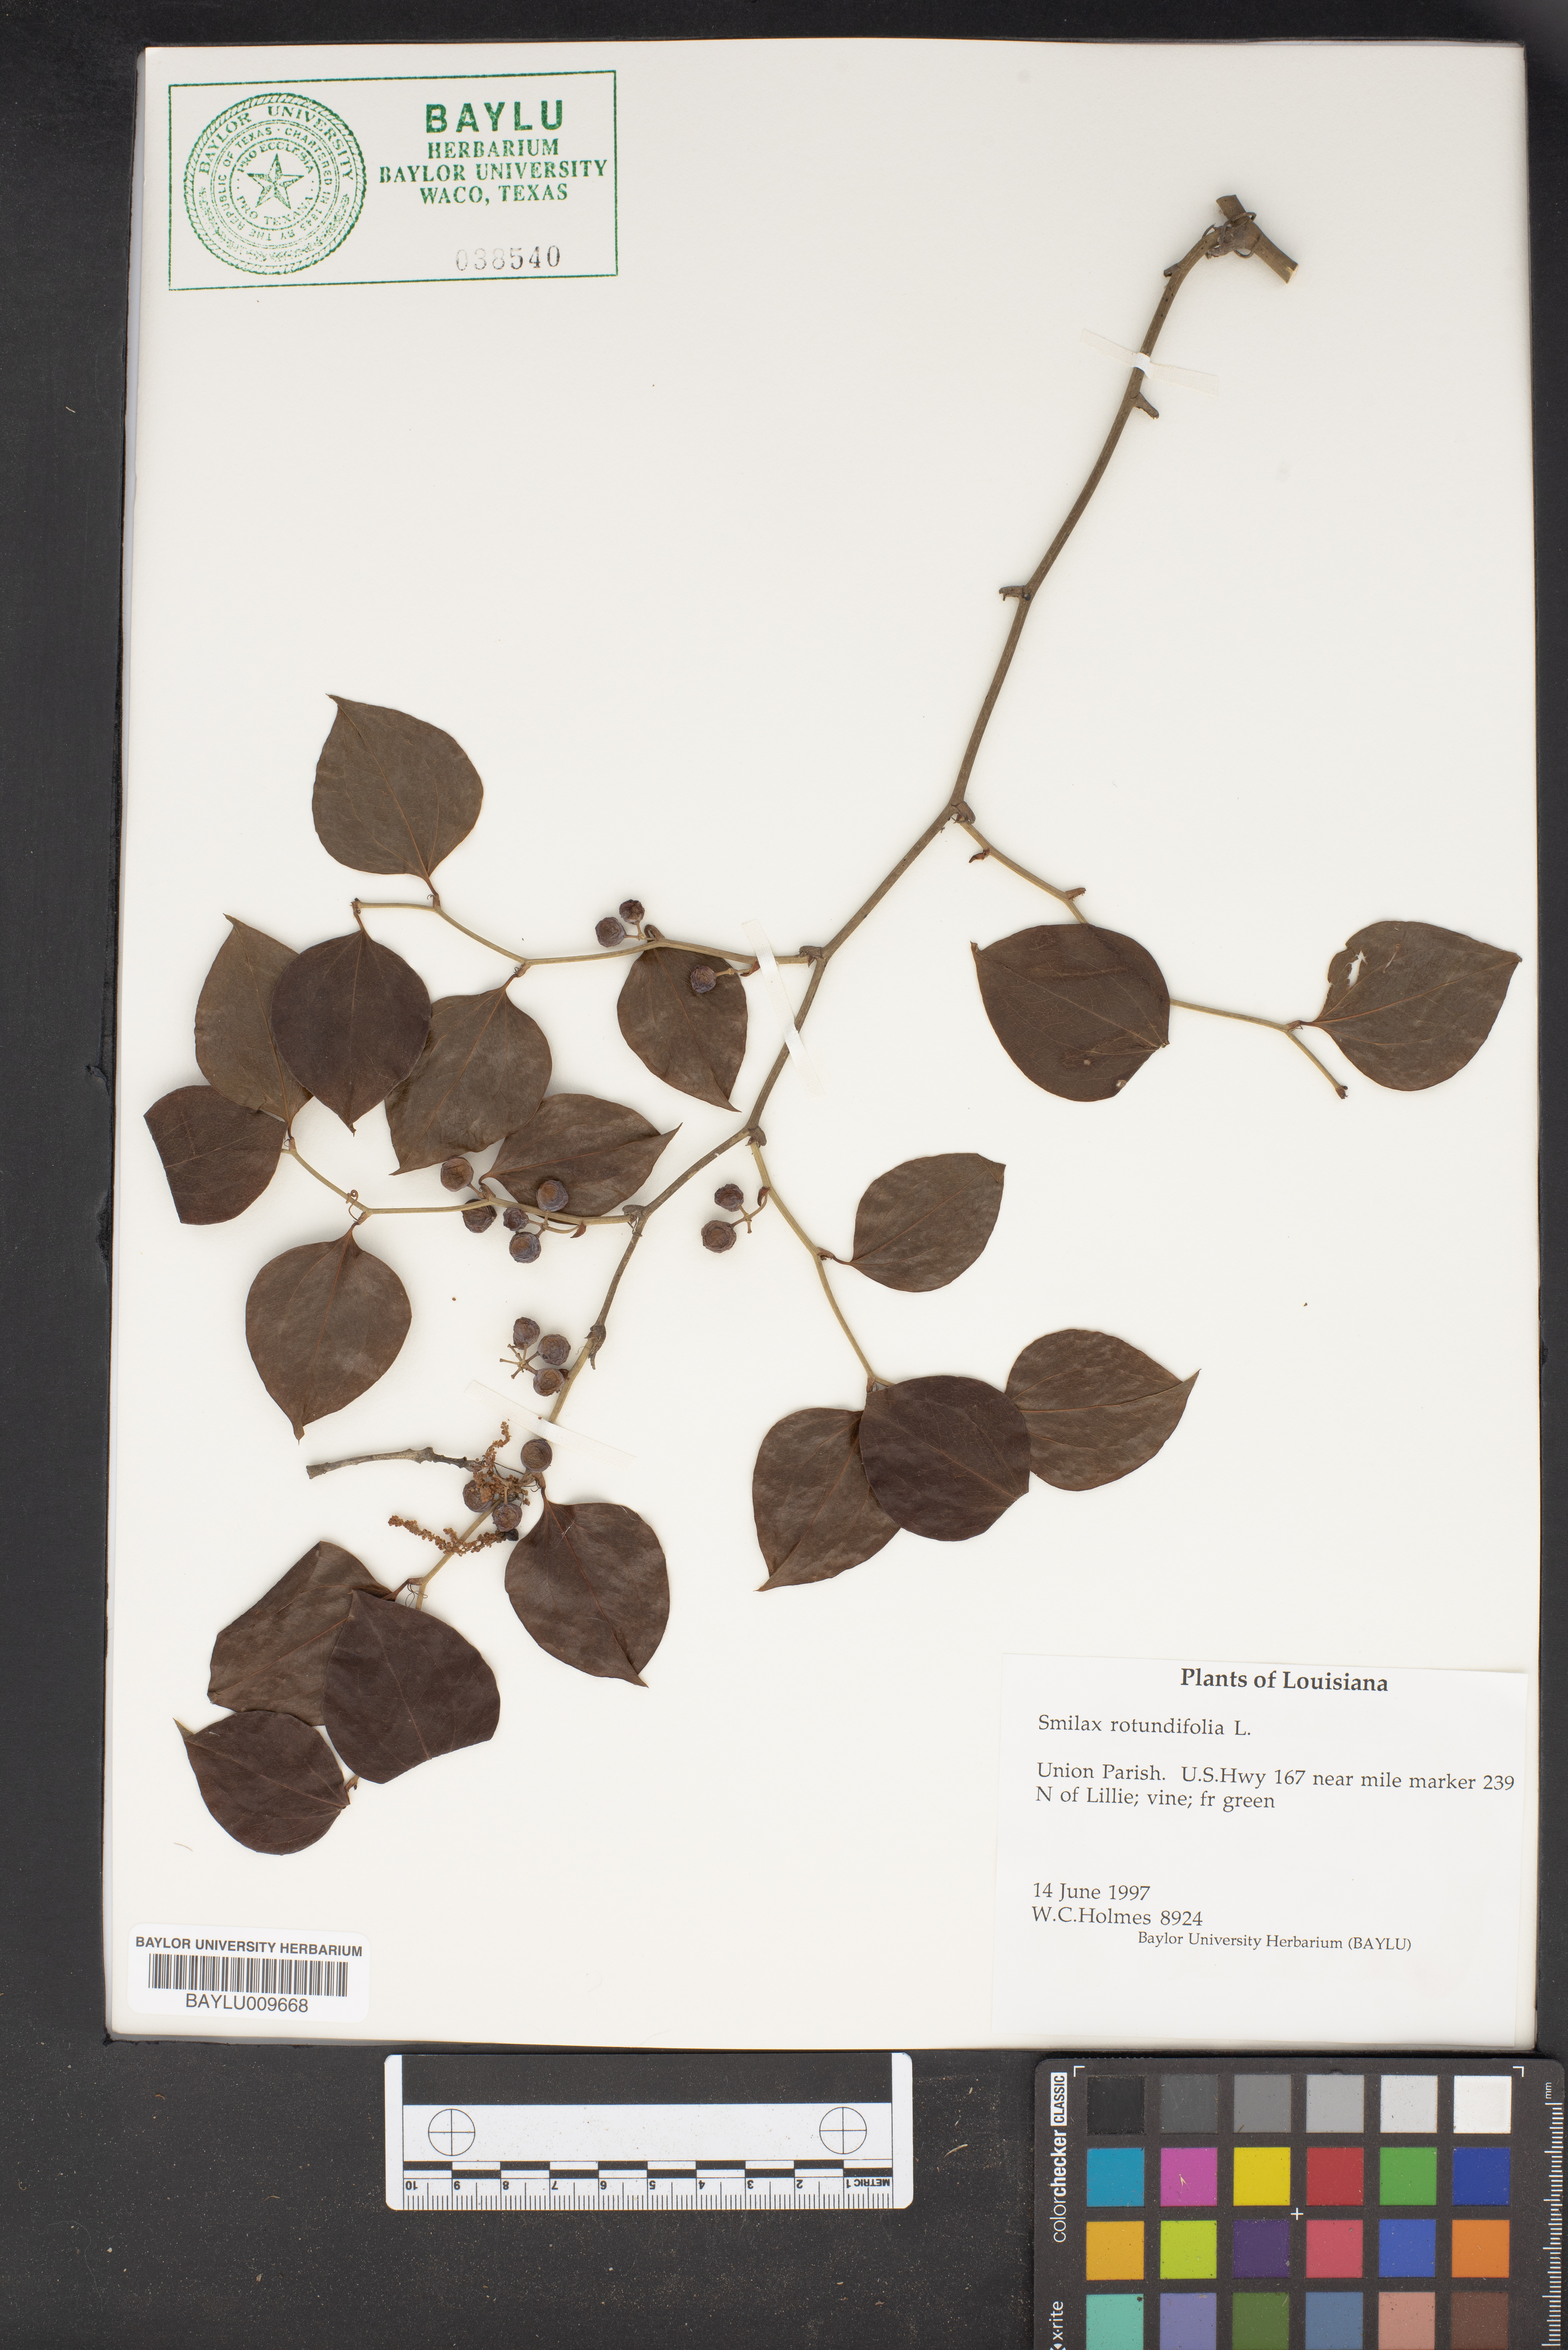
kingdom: Plantae
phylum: Tracheophyta
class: Liliopsida
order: Liliales
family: Smilacaceae
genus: Smilax
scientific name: Smilax rotundifolia
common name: Bullbriar
